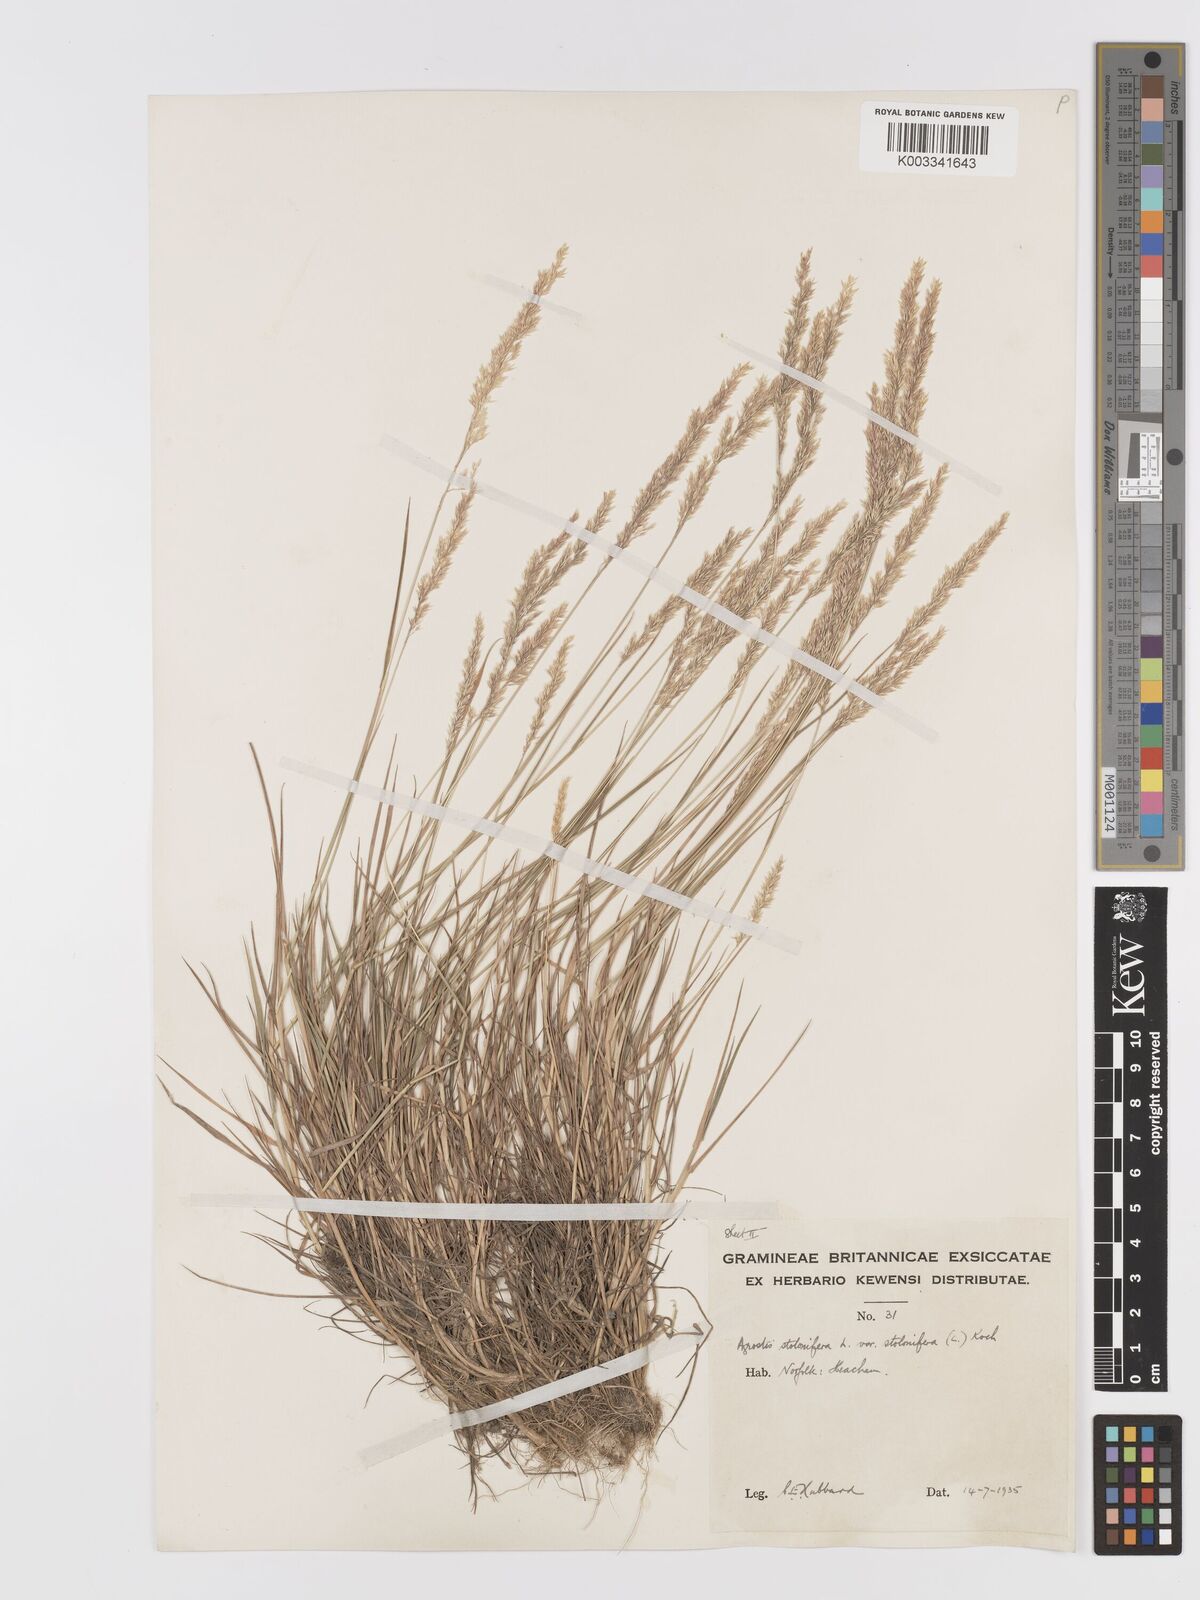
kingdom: Plantae
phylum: Tracheophyta
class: Liliopsida
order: Poales
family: Poaceae
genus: Agrostis
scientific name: Agrostis stolonifera
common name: Creeping bentgrass
